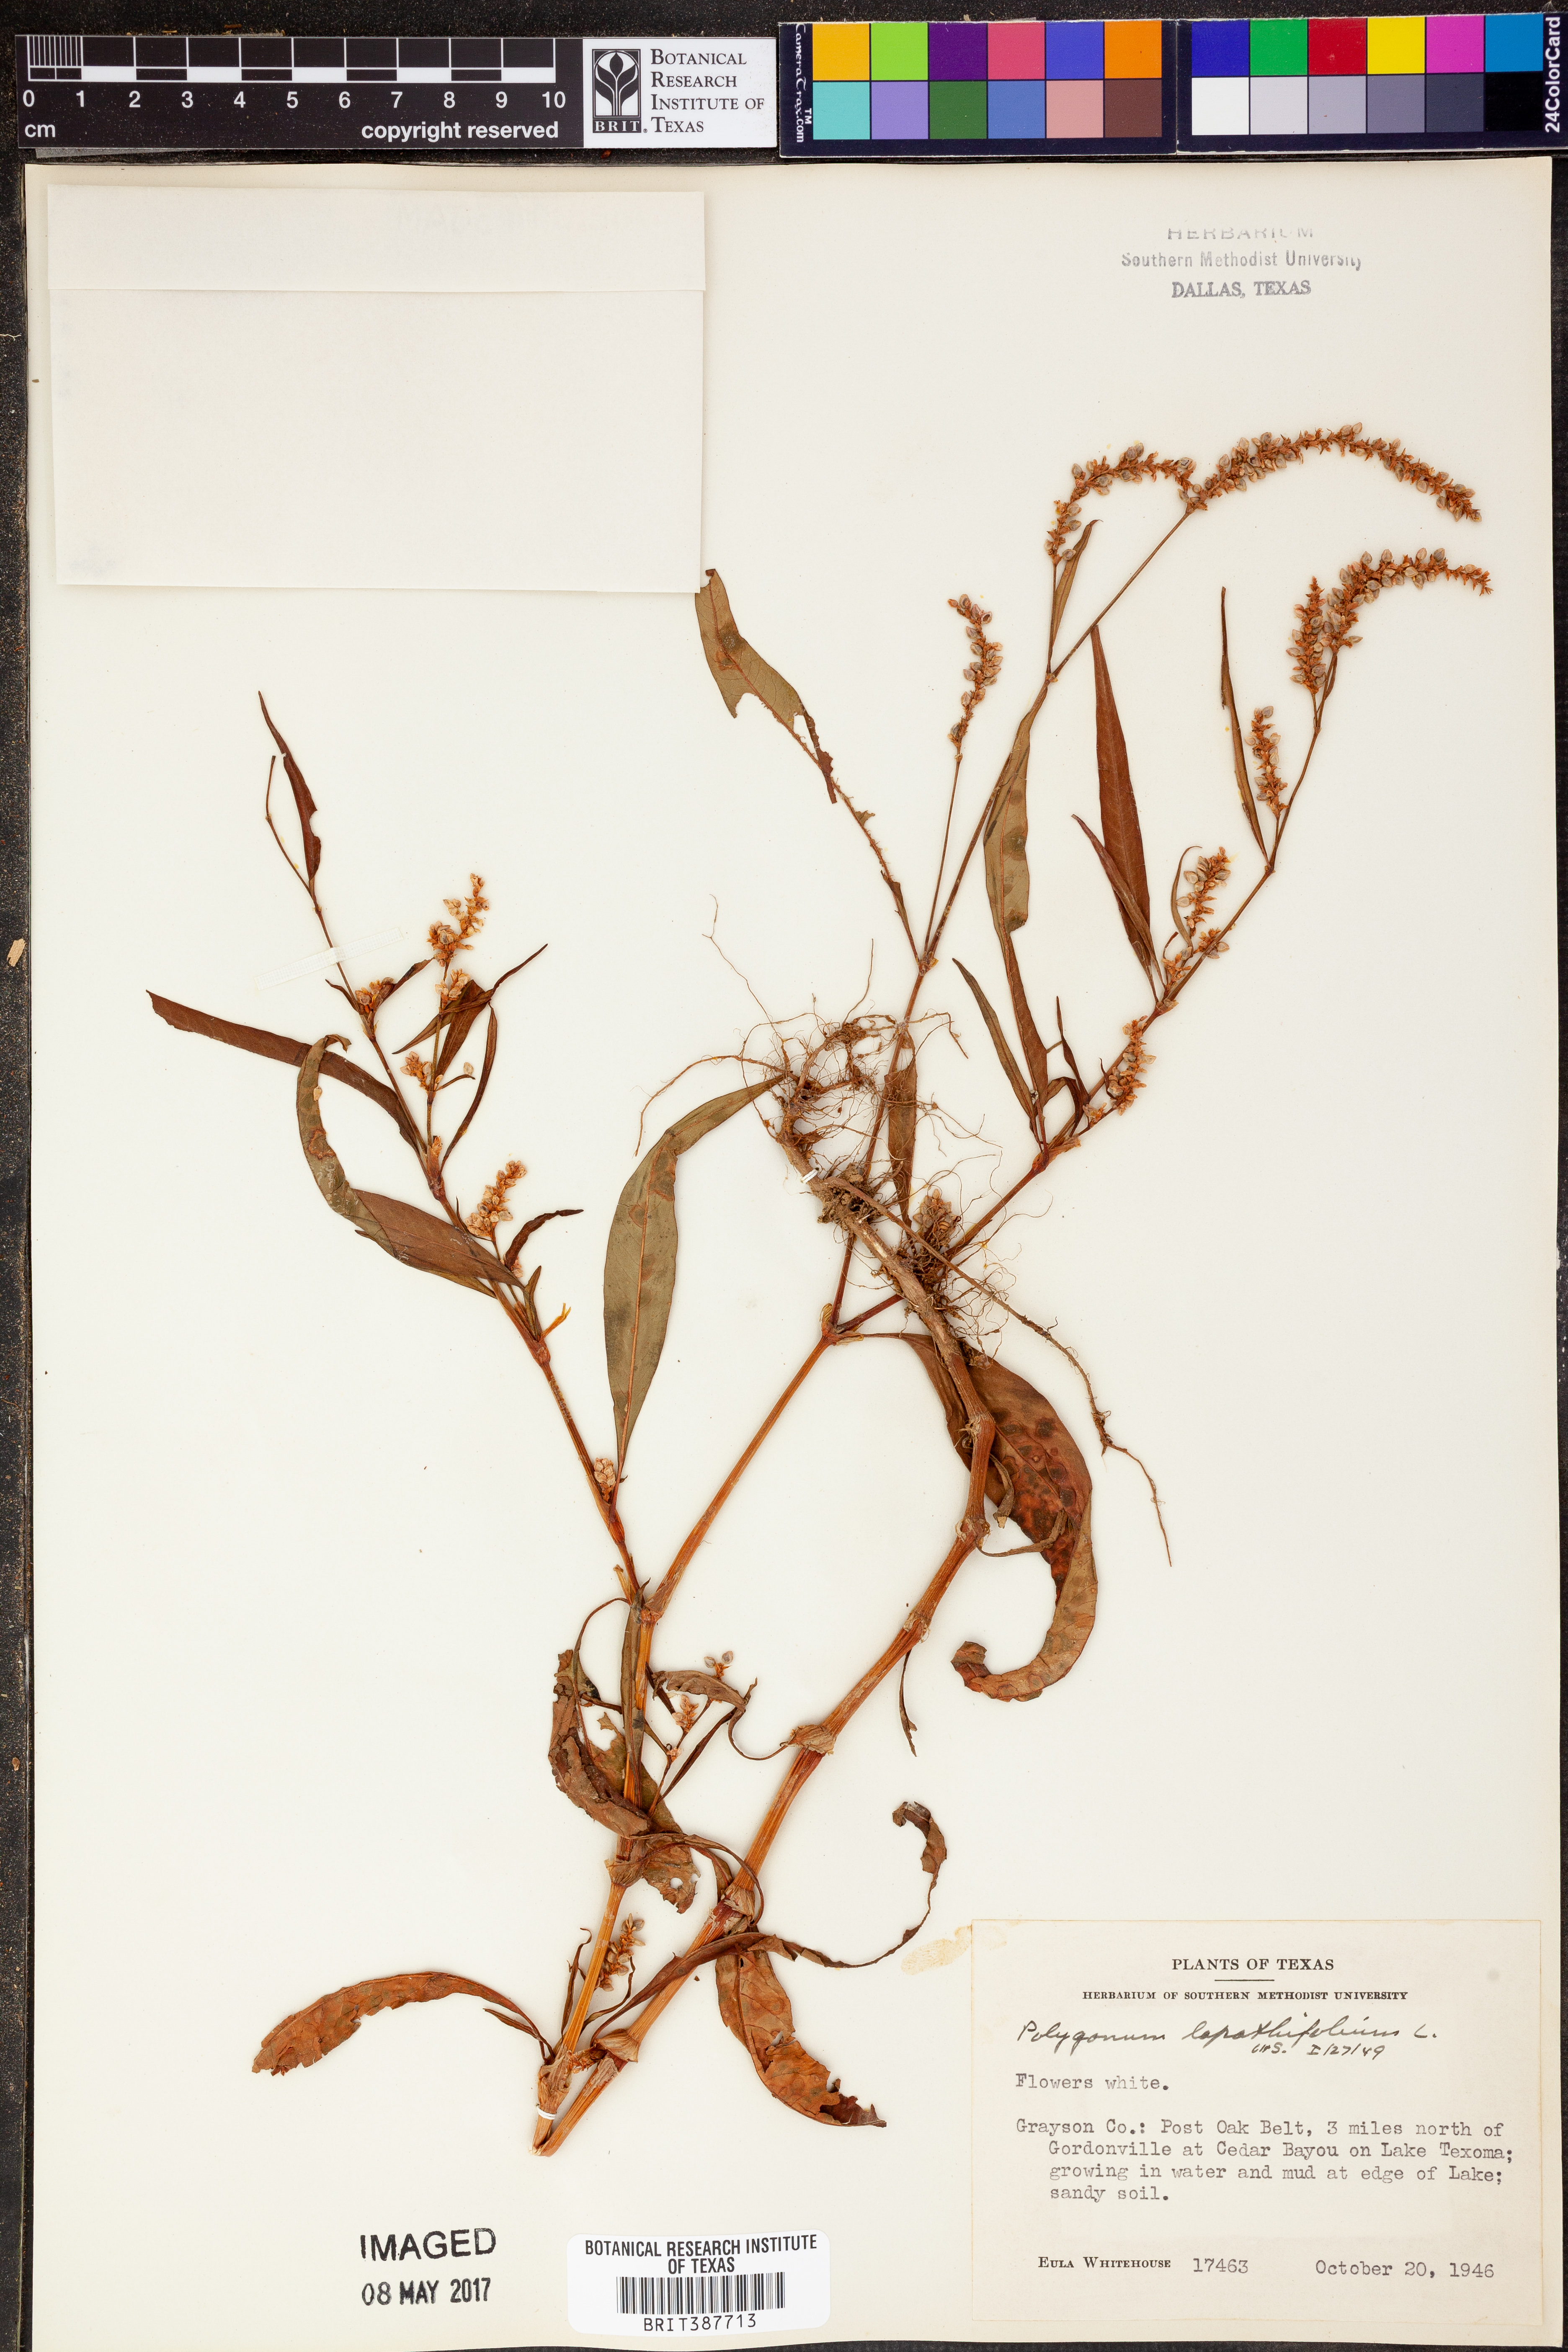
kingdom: Plantae
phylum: Tracheophyta
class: Magnoliopsida
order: Caryophyllales
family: Polygonaceae
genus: Persicaria
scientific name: Persicaria lapathifolia
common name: Curlytop knotweed
